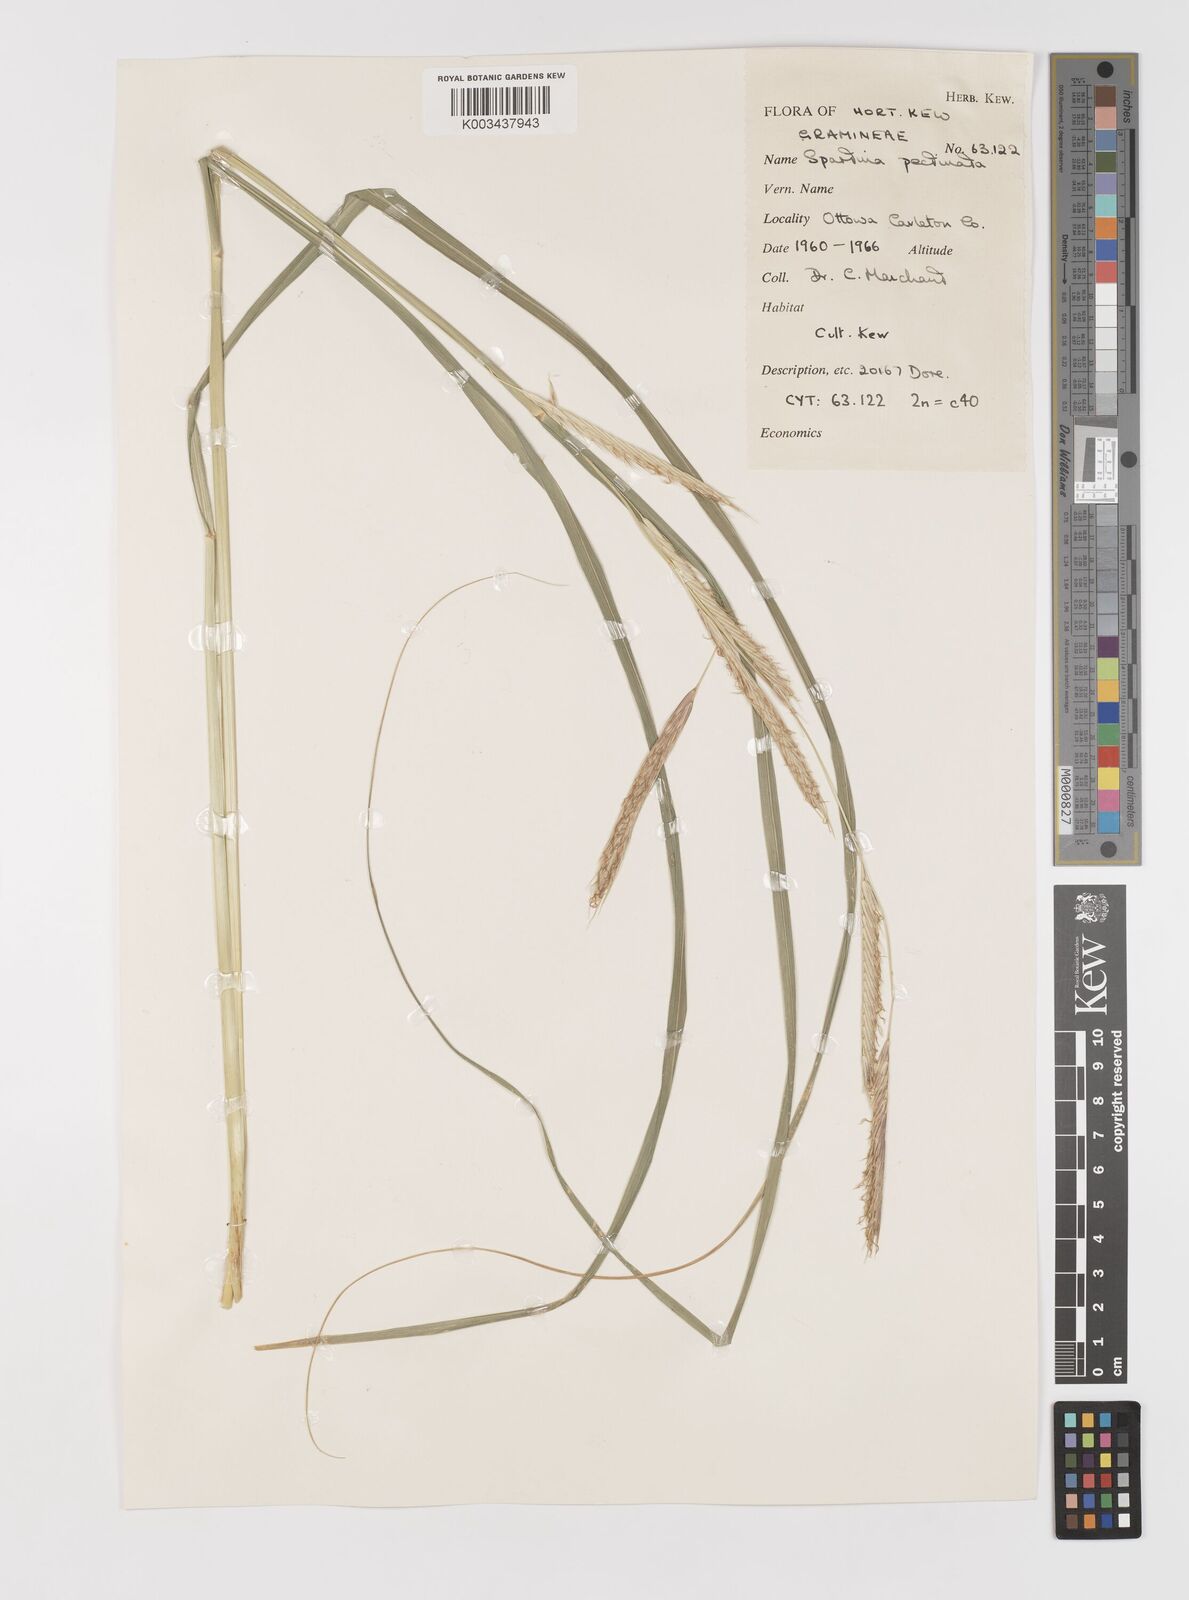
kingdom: Plantae
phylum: Tracheophyta
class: Liliopsida
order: Poales
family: Poaceae
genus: Sporobolus
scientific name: Sporobolus michauxianus
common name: Freshwater cordgrass
